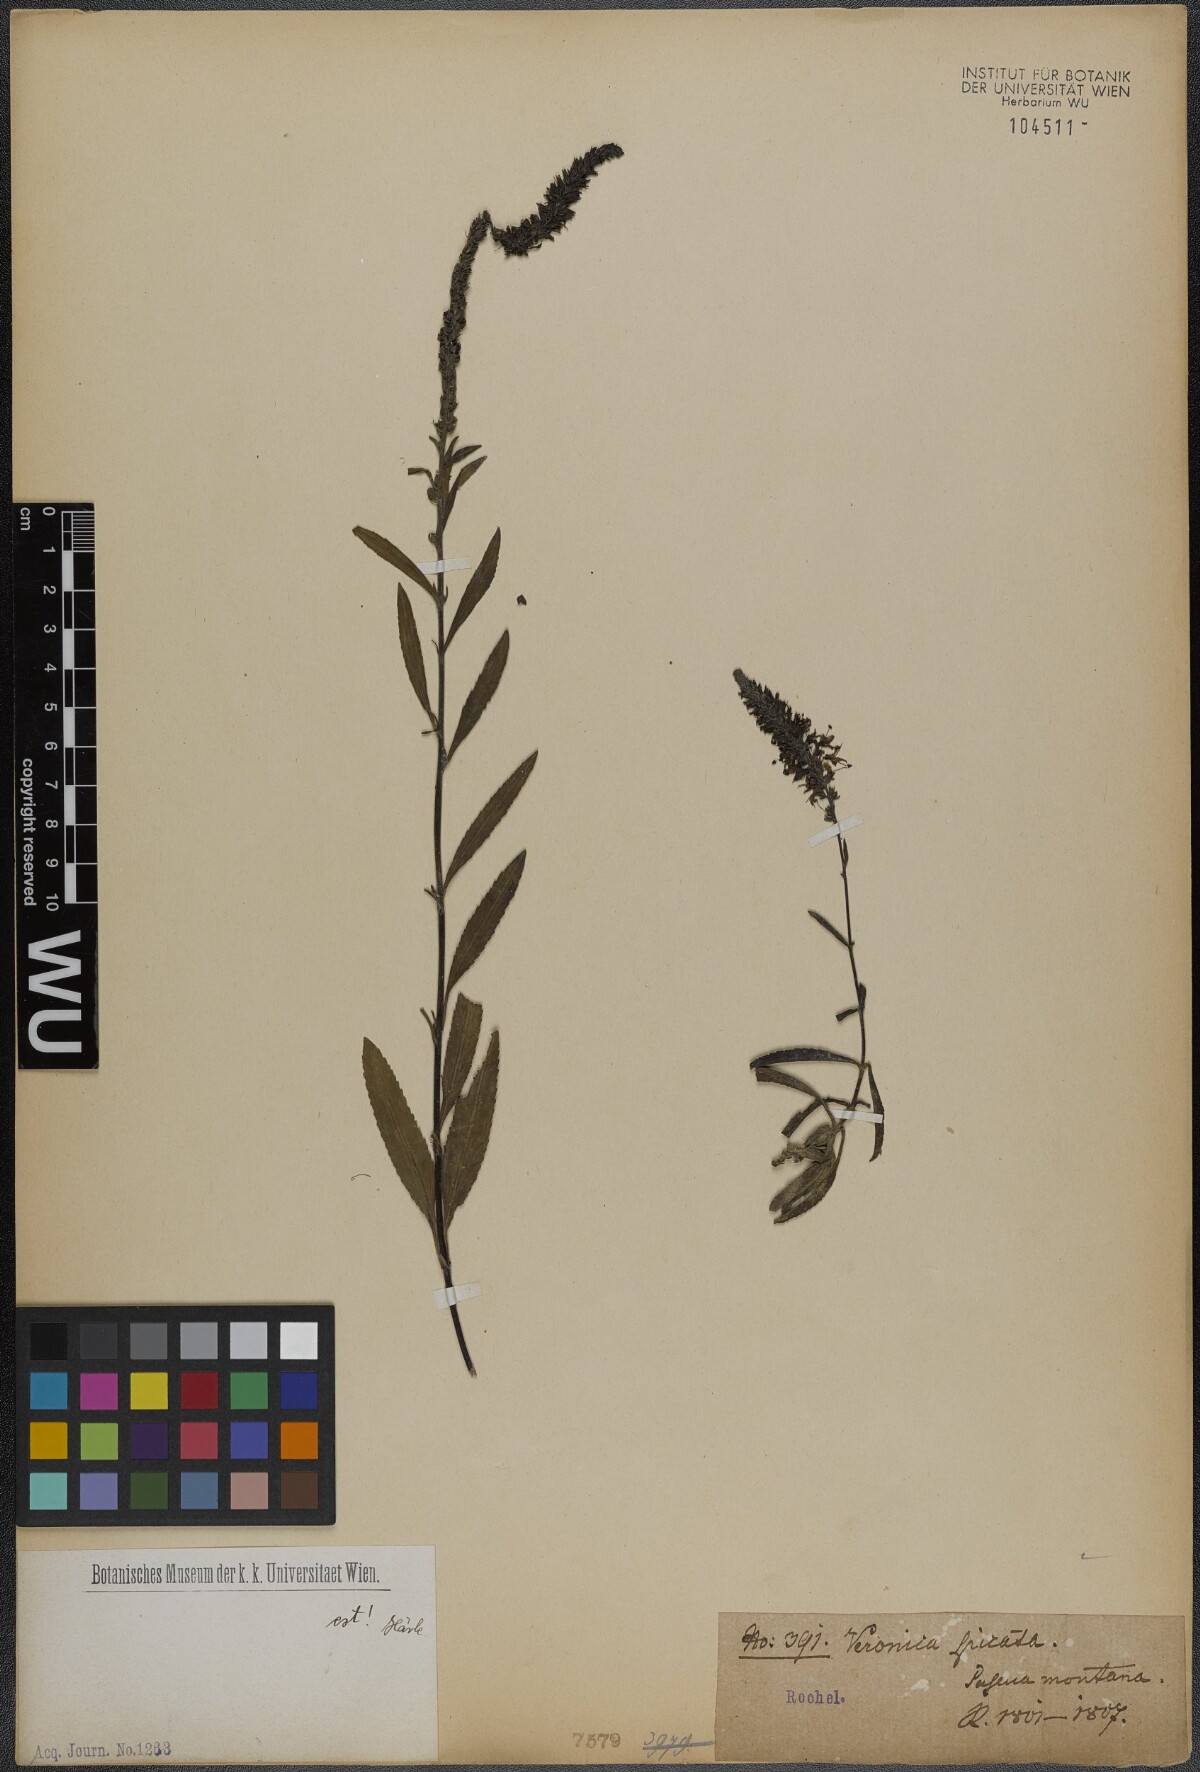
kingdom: Plantae
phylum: Tracheophyta
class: Magnoliopsida
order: Lamiales
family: Plantaginaceae
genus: Veronica
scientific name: Veronica spicata
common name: Spiked speedwell
